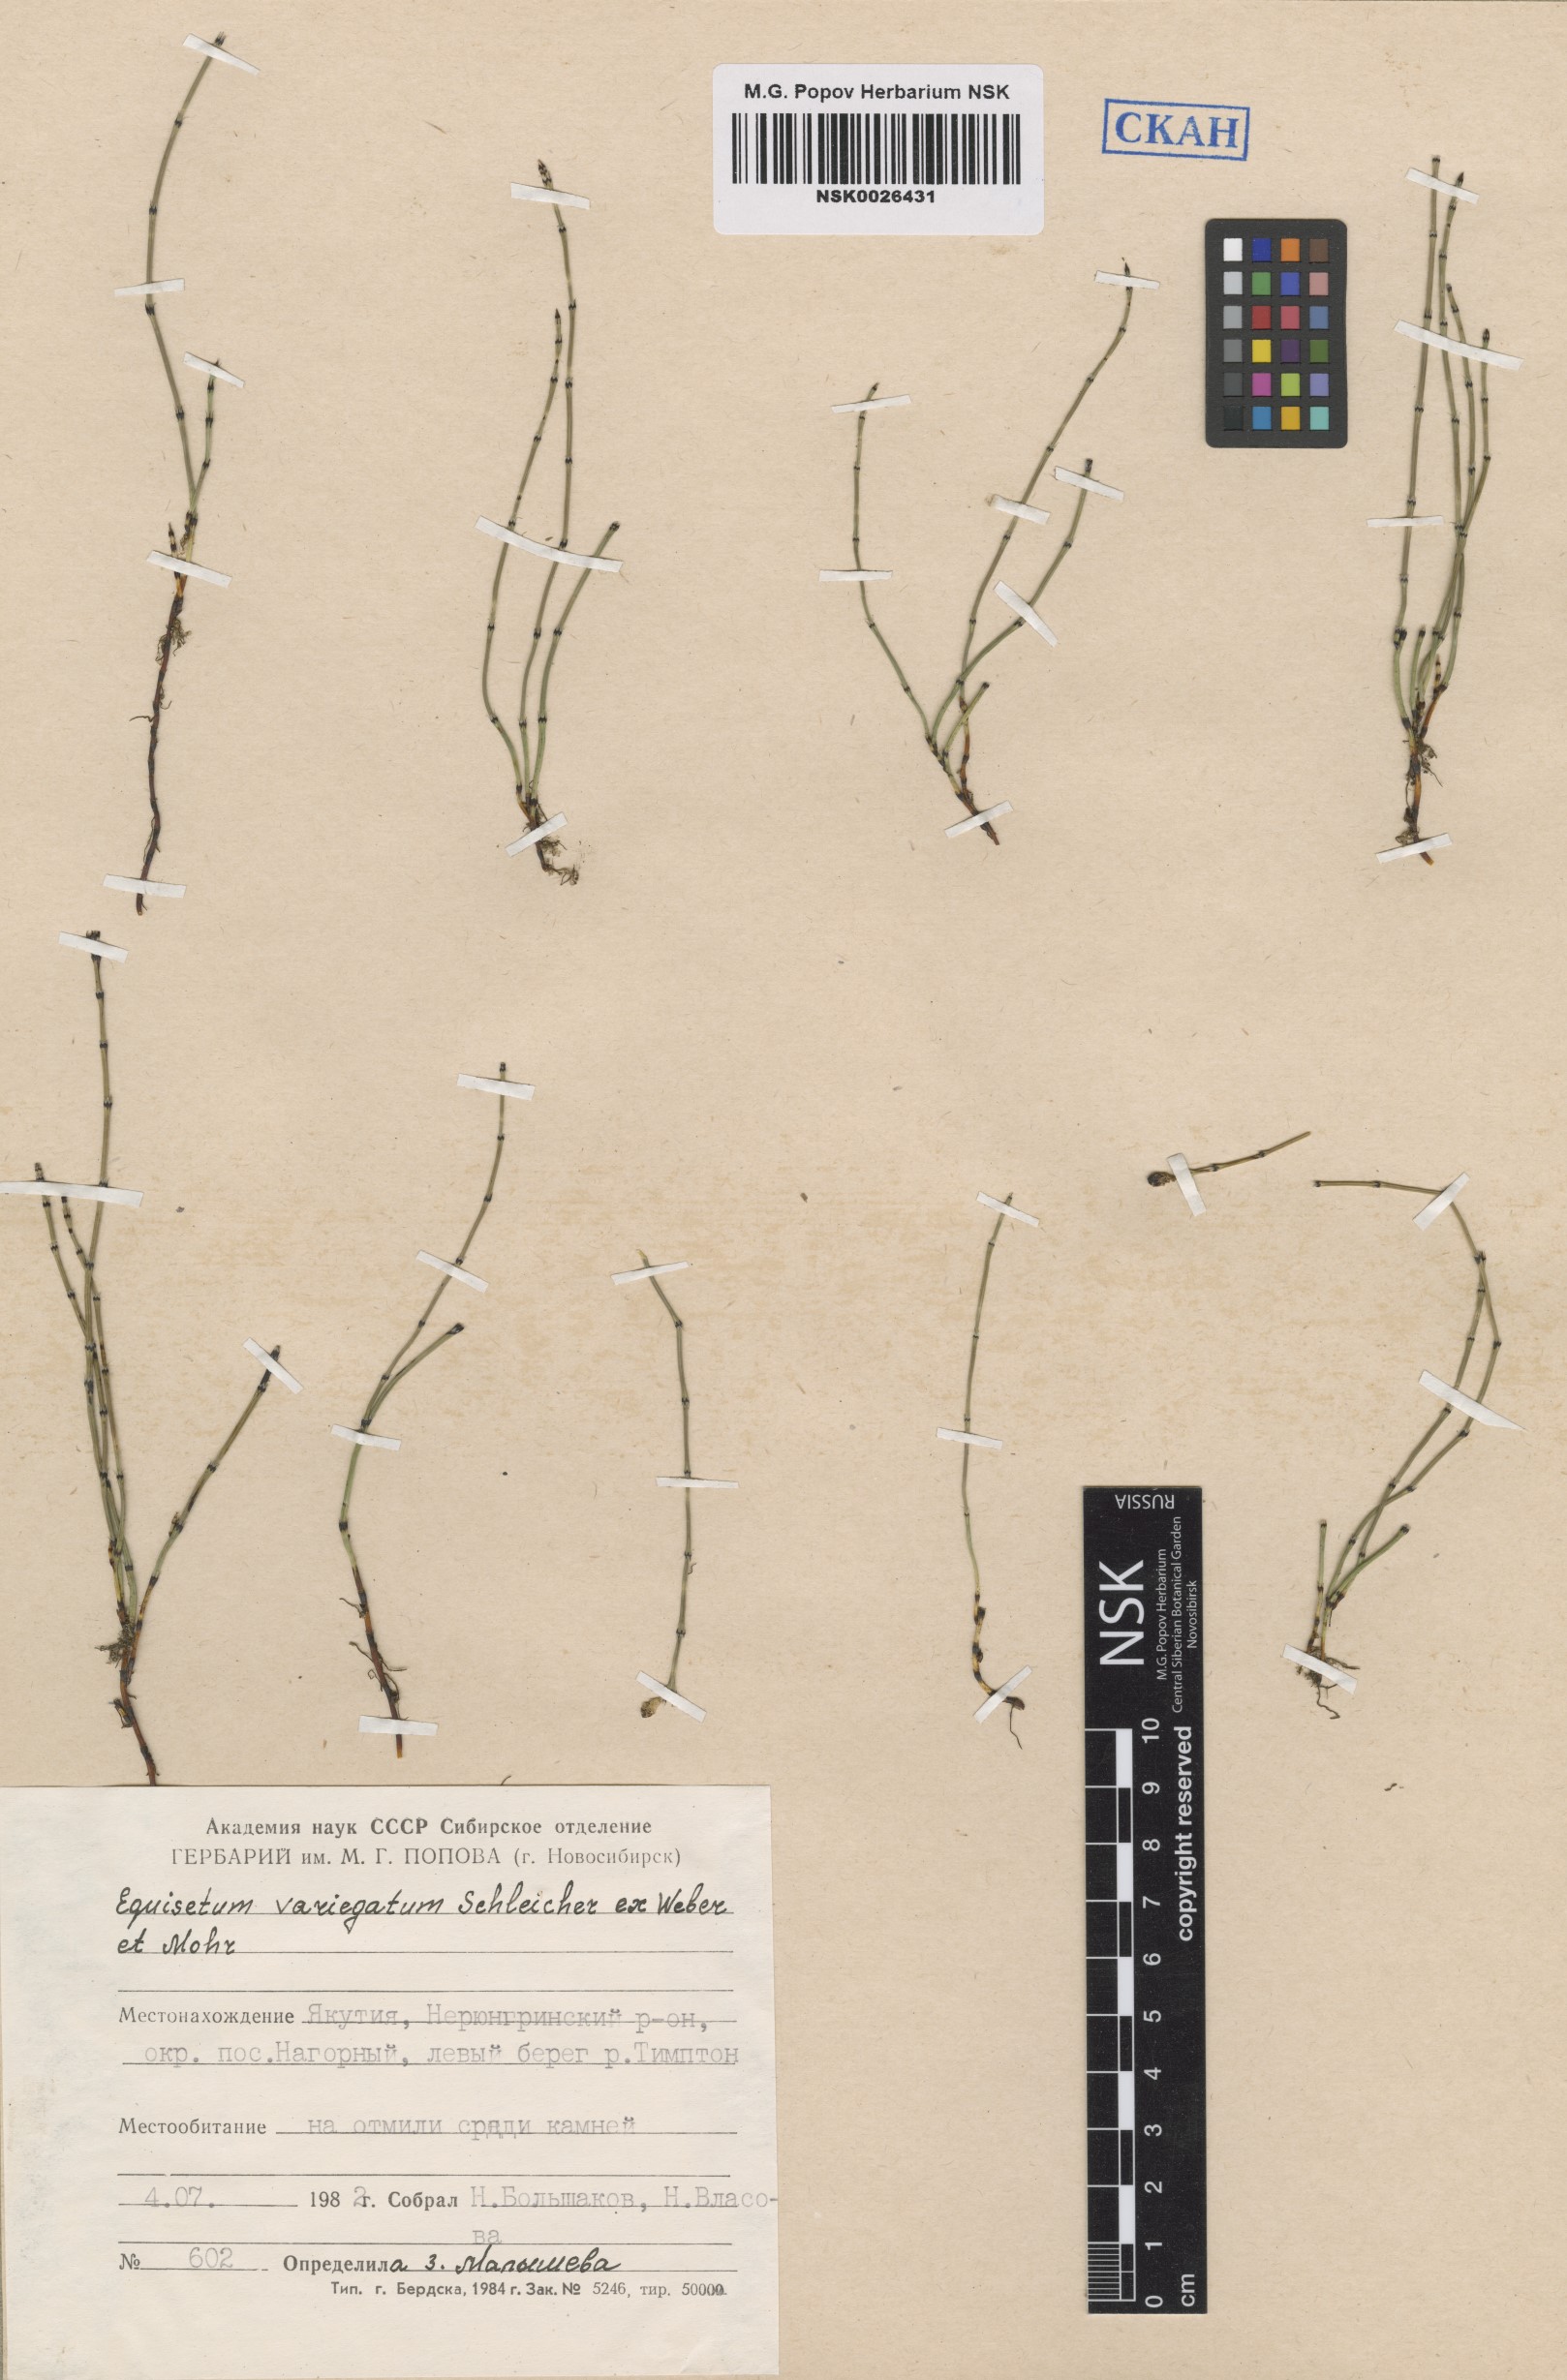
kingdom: Plantae
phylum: Tracheophyta
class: Polypodiopsida
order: Equisetales
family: Equisetaceae
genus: Equisetum
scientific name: Equisetum variegatum
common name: Variegated horsetail
